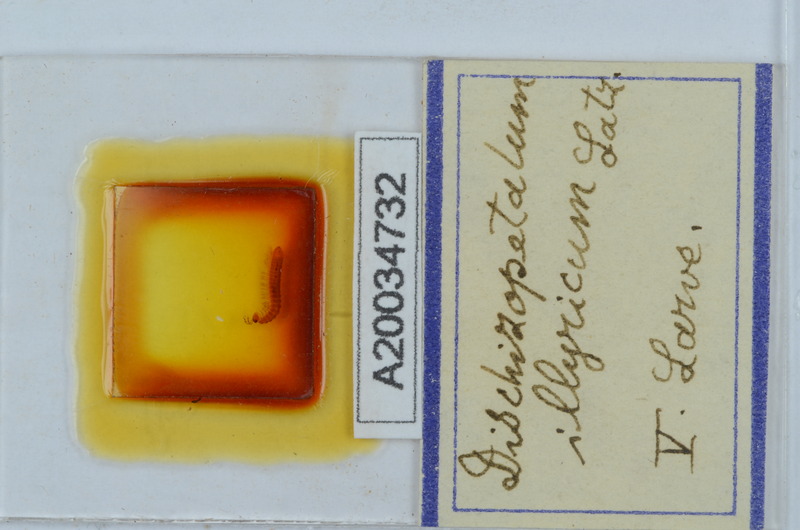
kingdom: Animalia
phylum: Arthropoda
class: Diplopoda
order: Callipodida
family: Schizopetalidae
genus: Dischizopetalum
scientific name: Dischizopetalum illyricum
